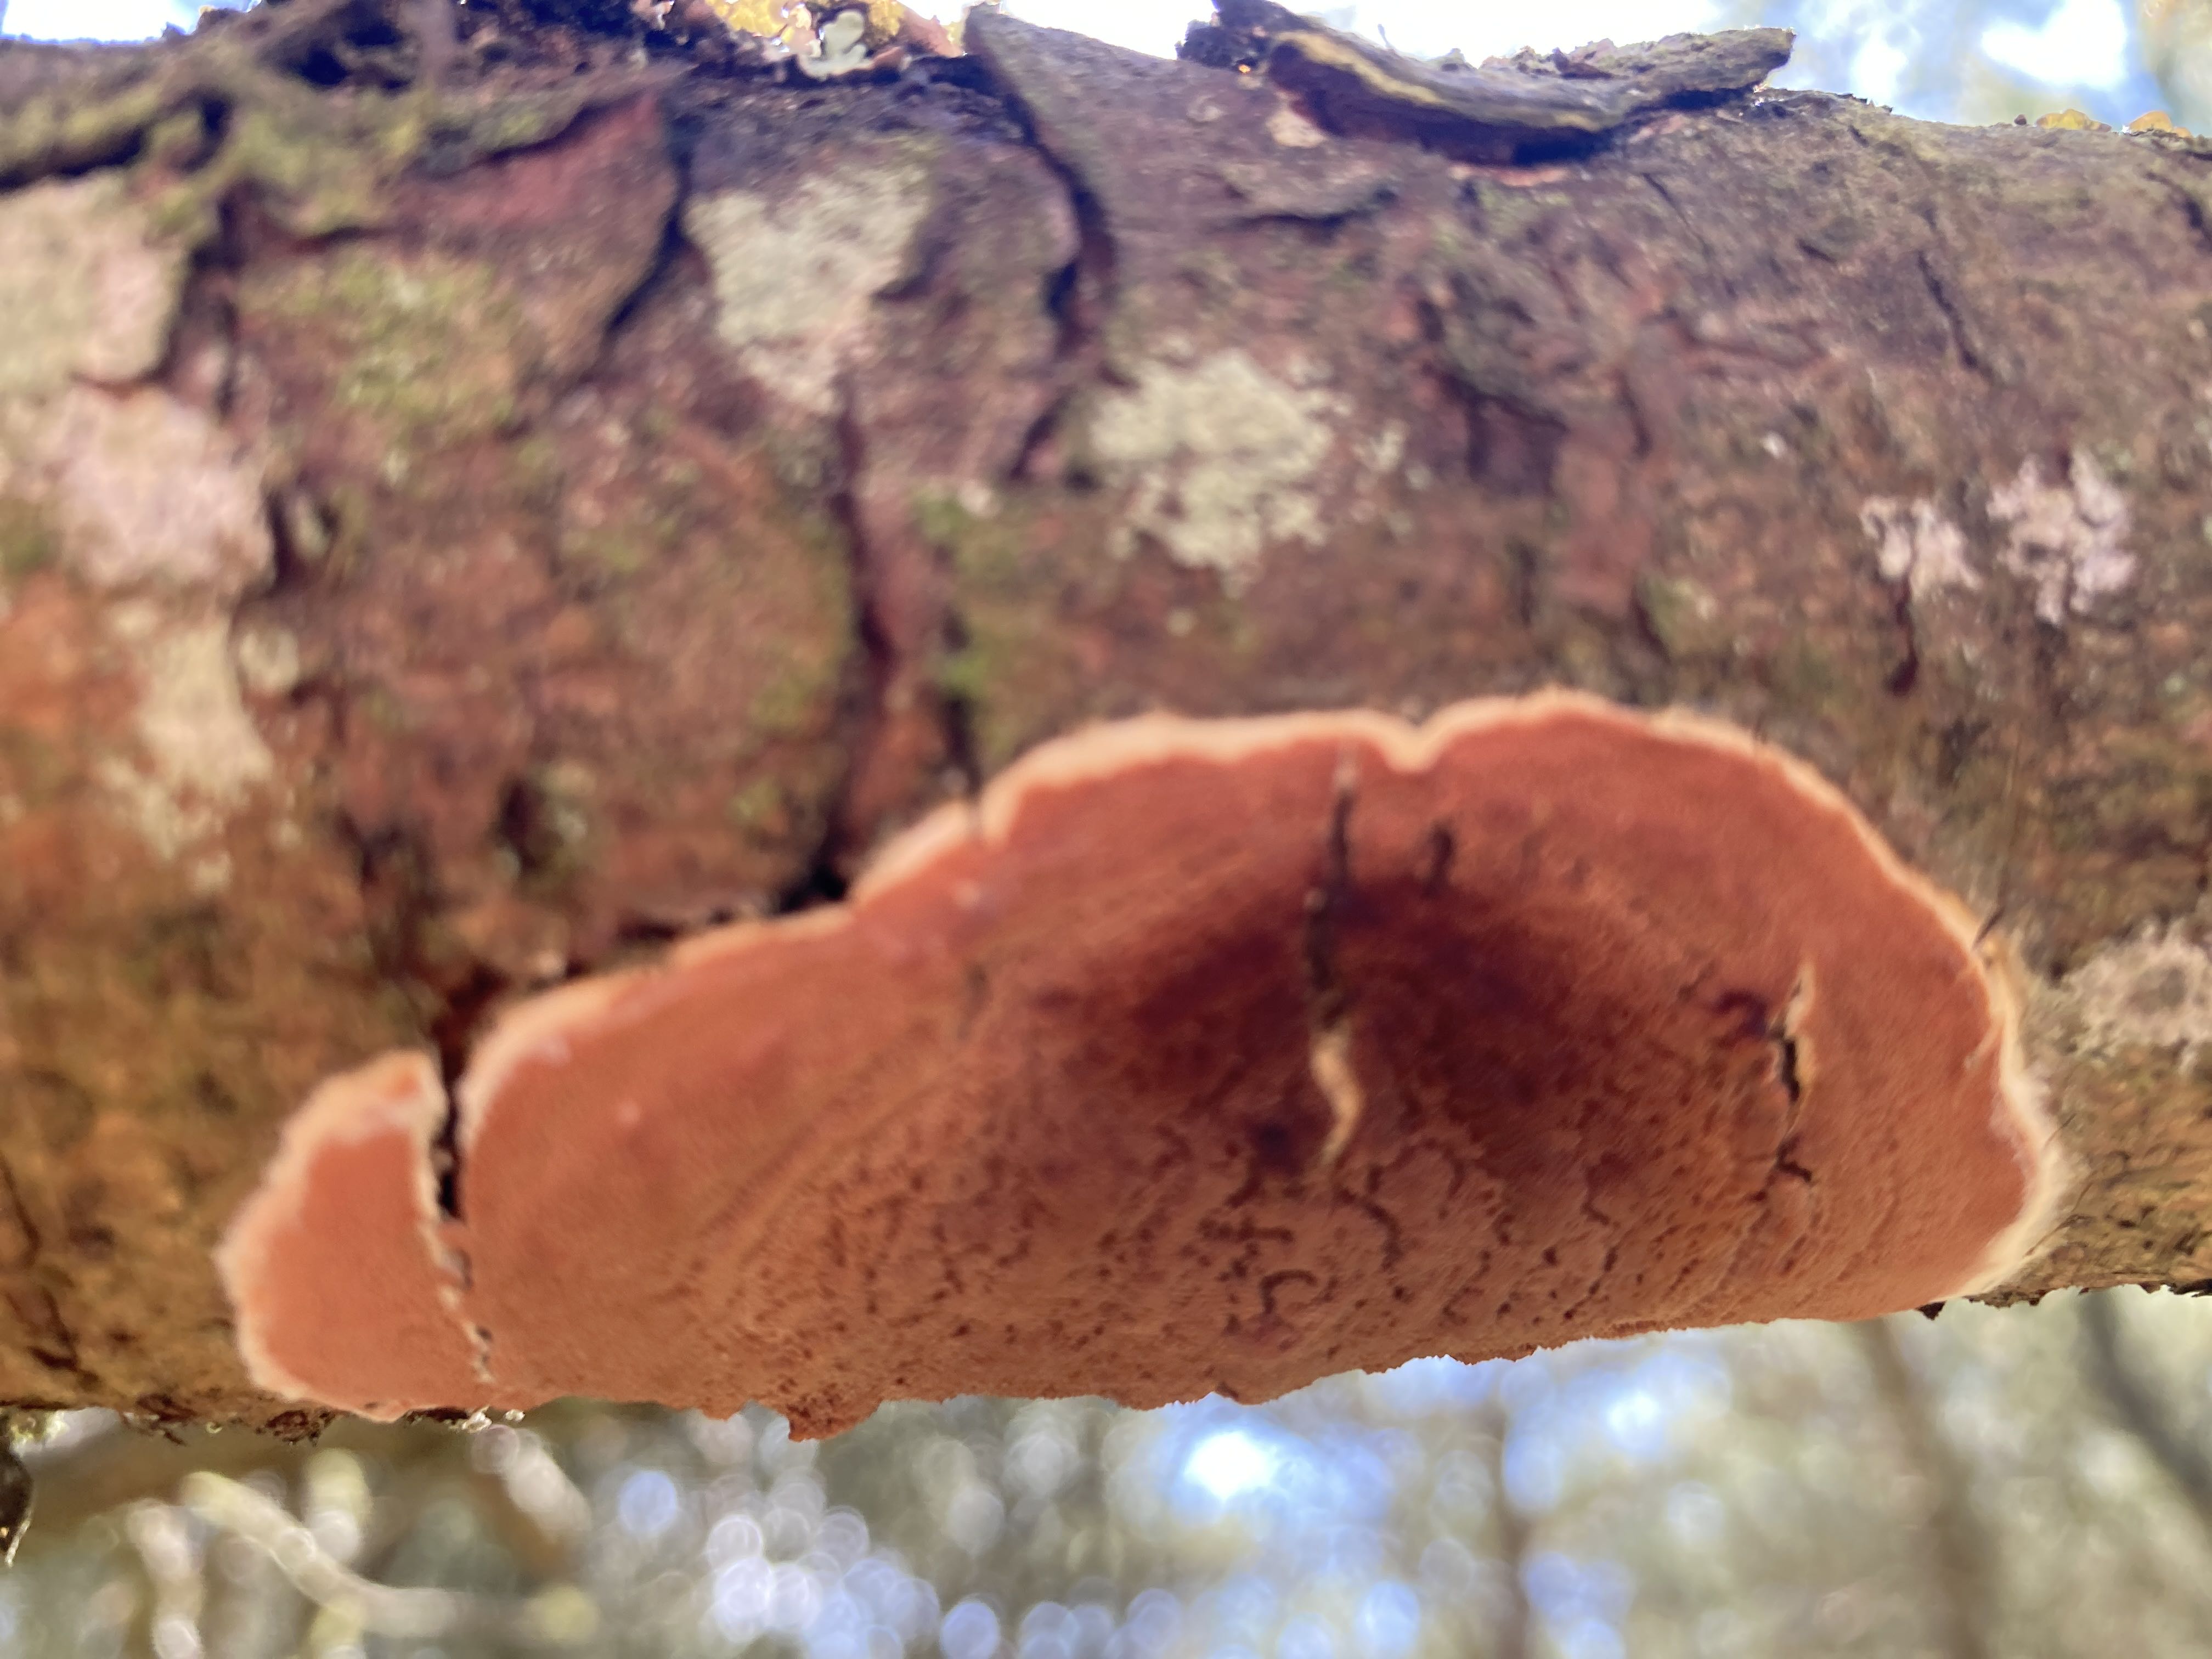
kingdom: Fungi
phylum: Basidiomycota
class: Agaricomycetes
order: Polyporales
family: Irpicaceae
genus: Meruliopsis
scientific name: Meruliopsis taxicola
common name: purpurbrun foldporesvamp
